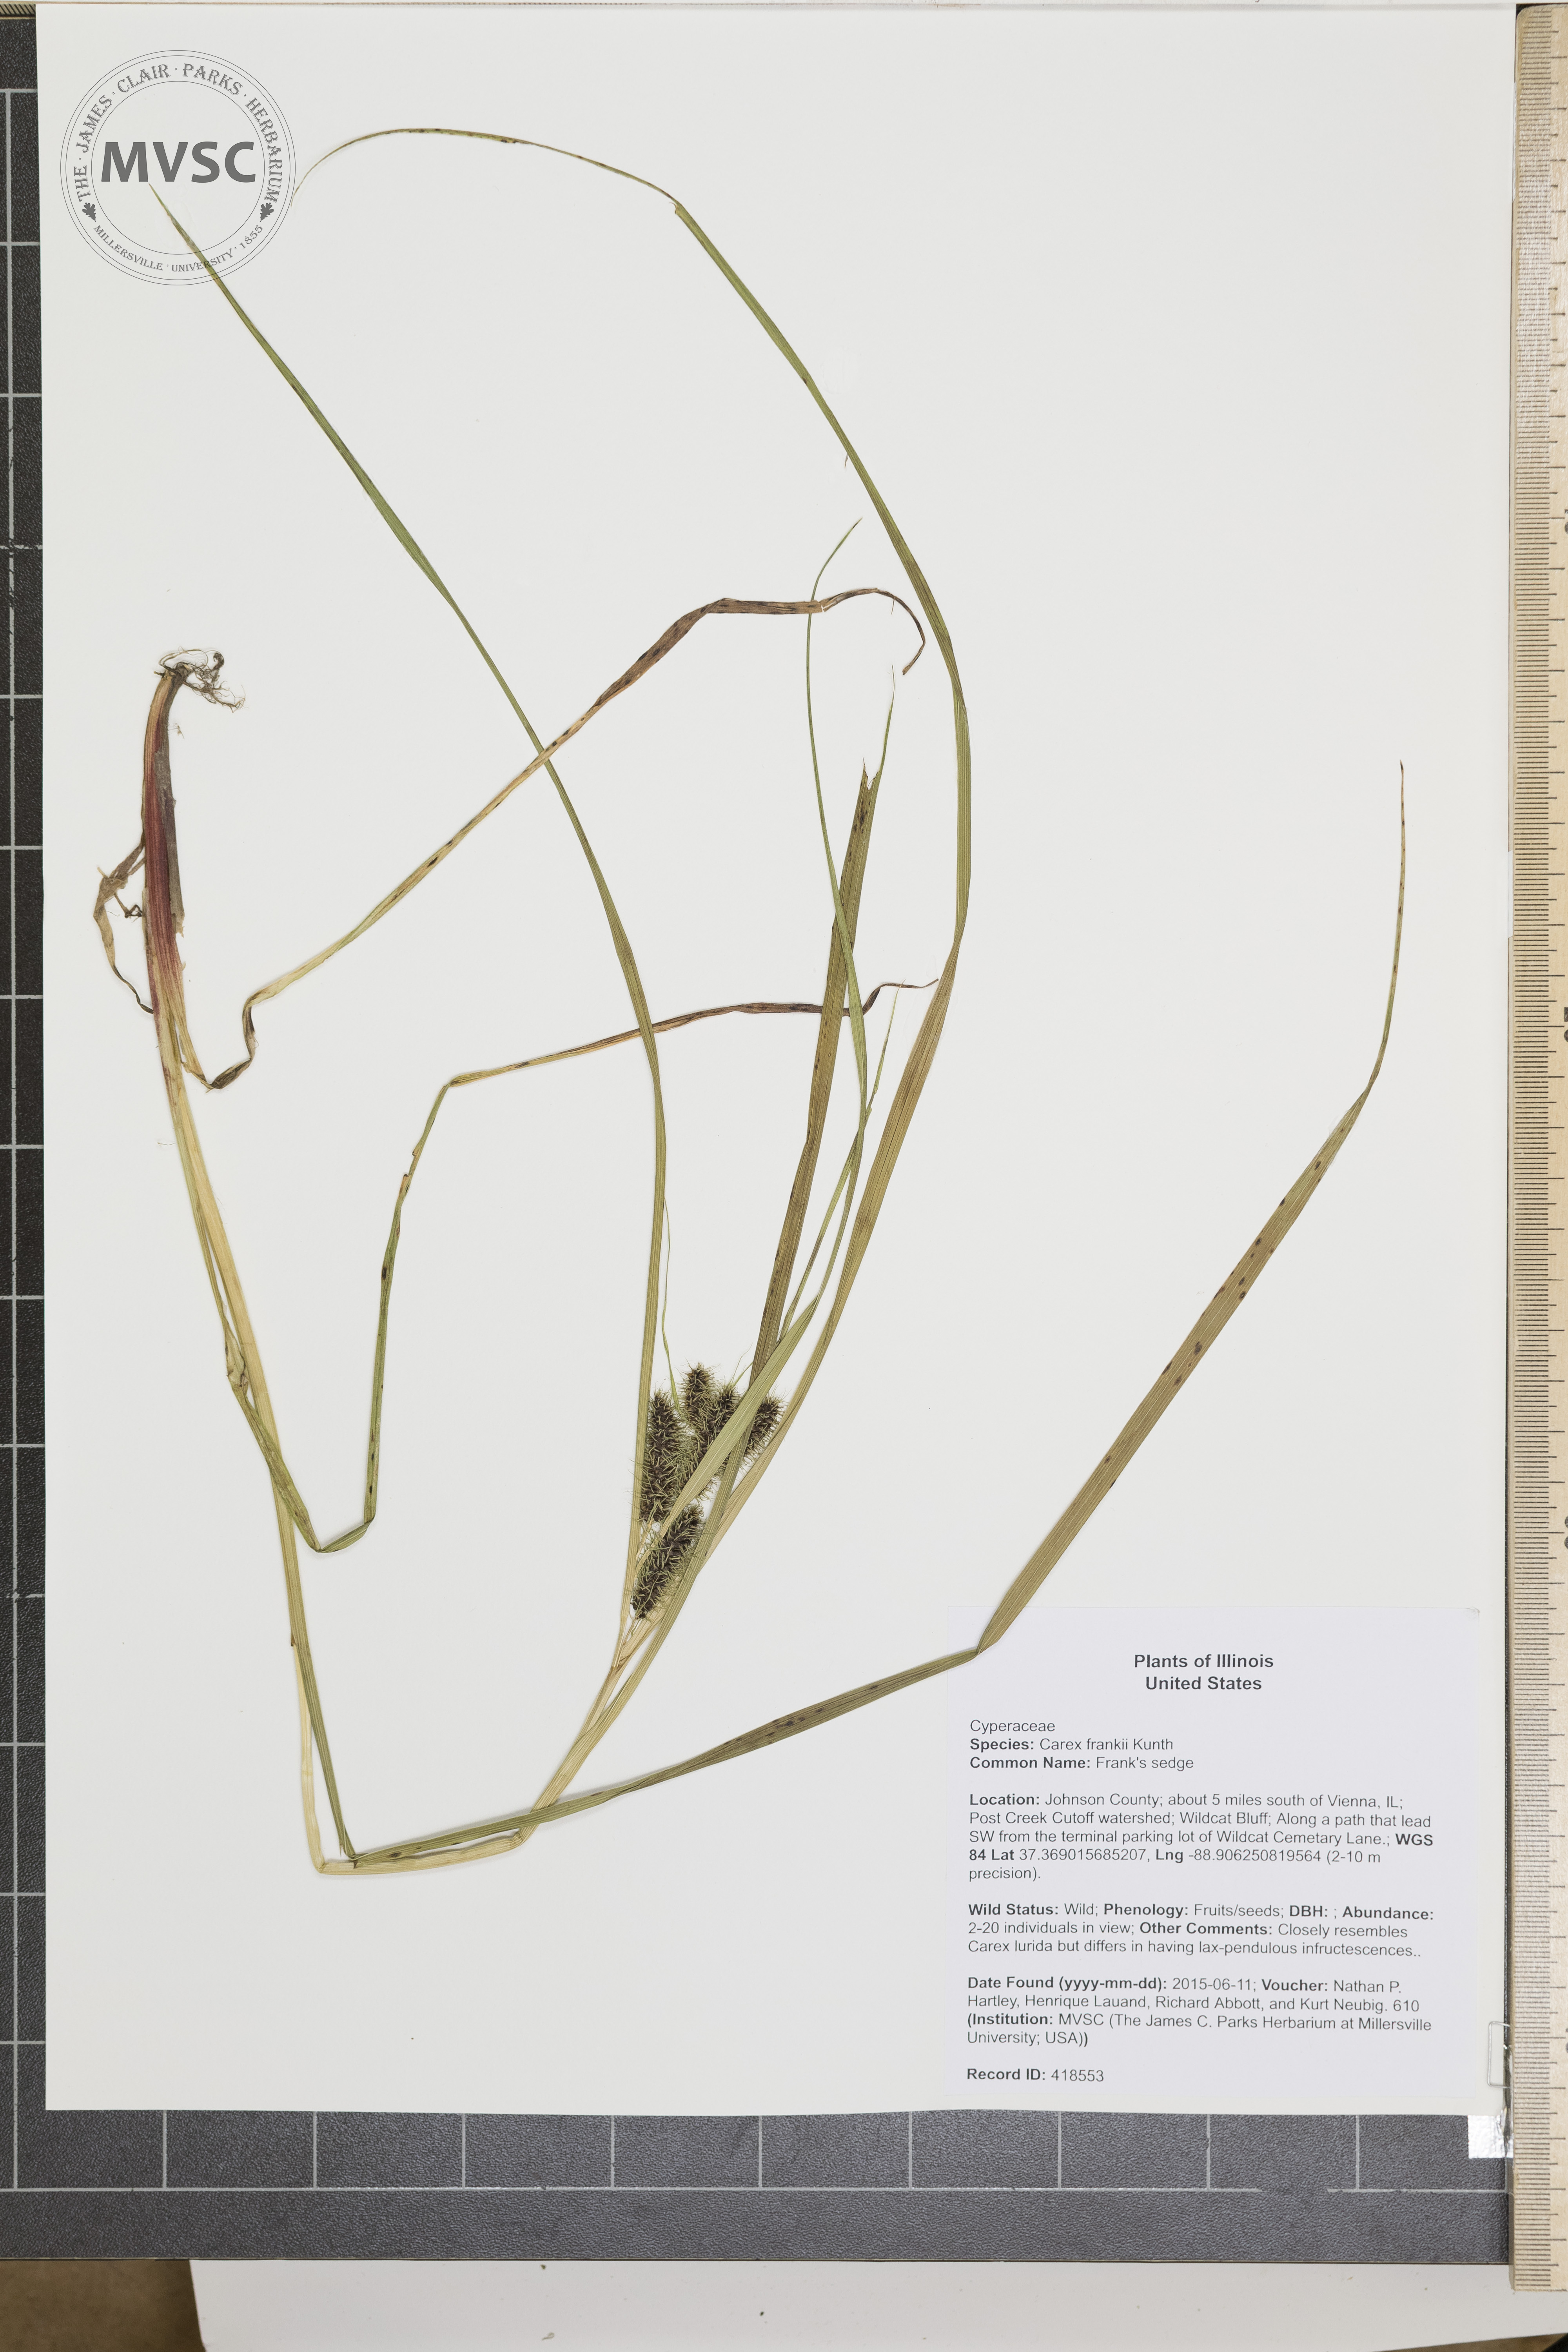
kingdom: Plantae
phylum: Tracheophyta
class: Liliopsida
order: Poales
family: Cyperaceae
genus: Carex
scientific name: Carex frankii
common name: Frank's sedge
